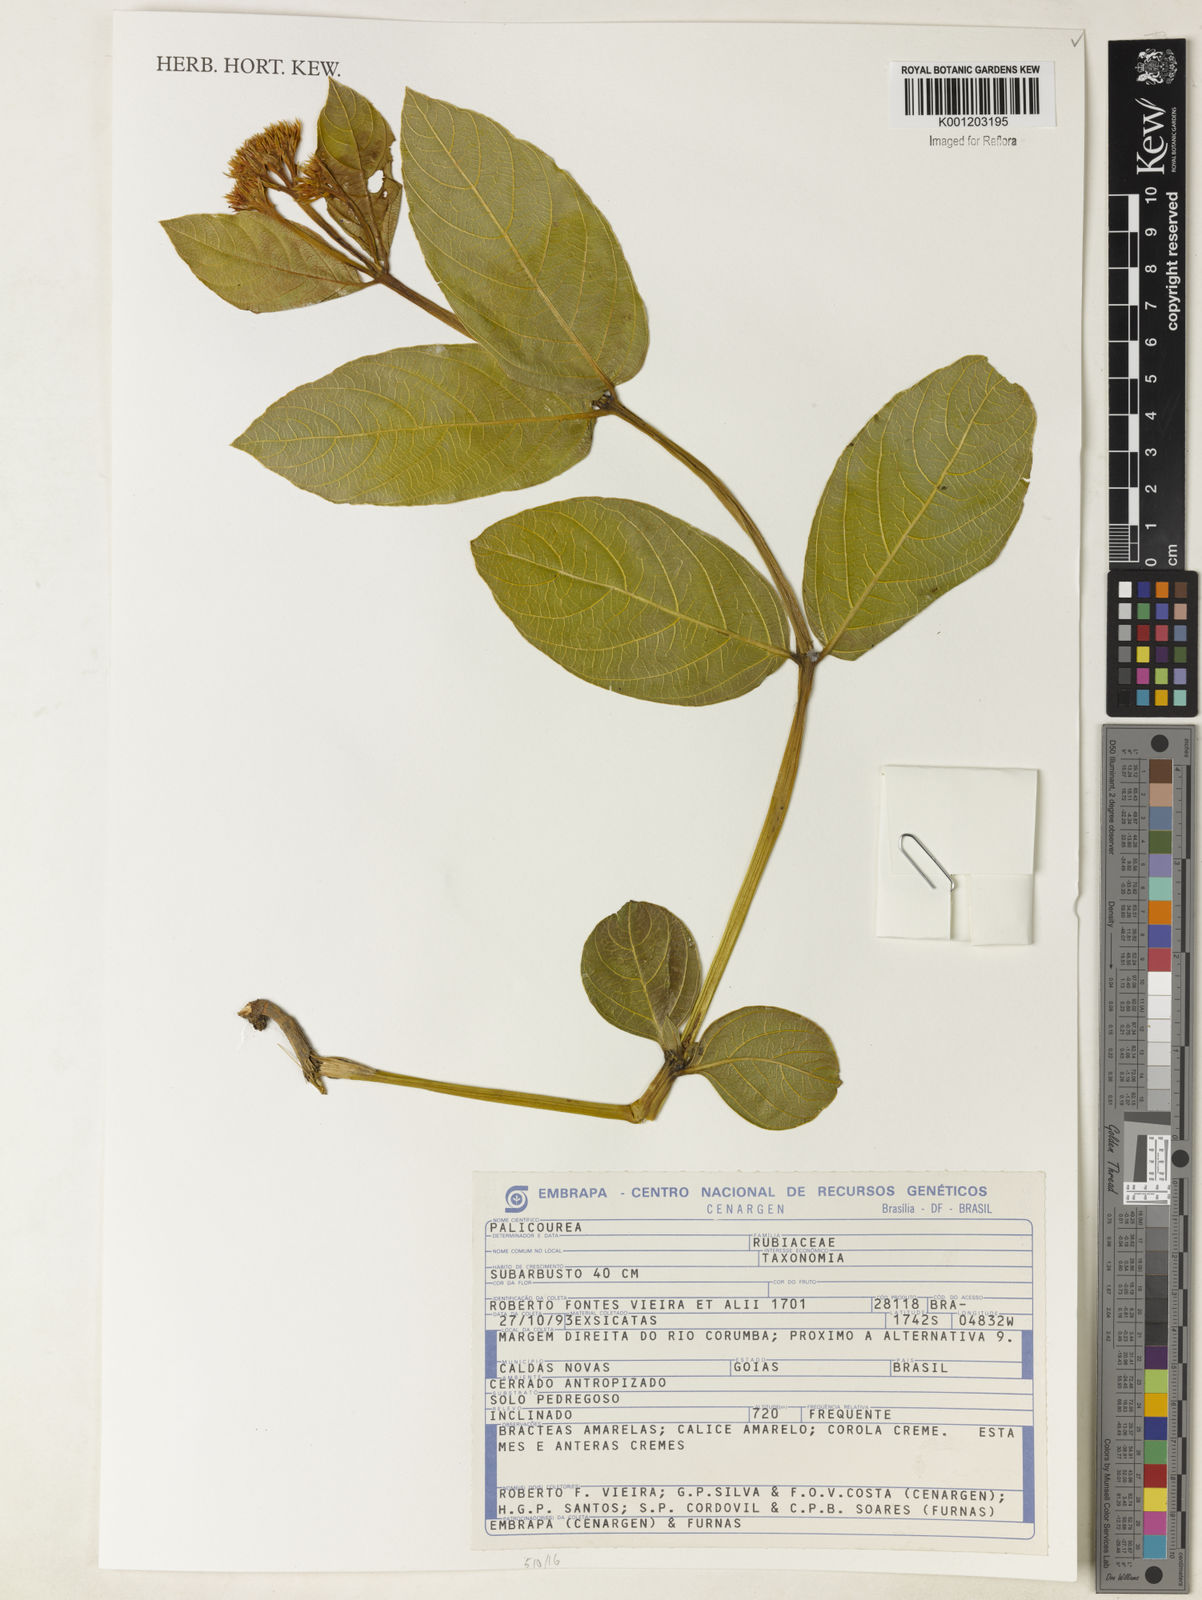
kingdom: Plantae
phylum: Tracheophyta
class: Magnoliopsida
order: Gentianales
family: Rubiaceae
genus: Palicourea
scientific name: Palicourea
